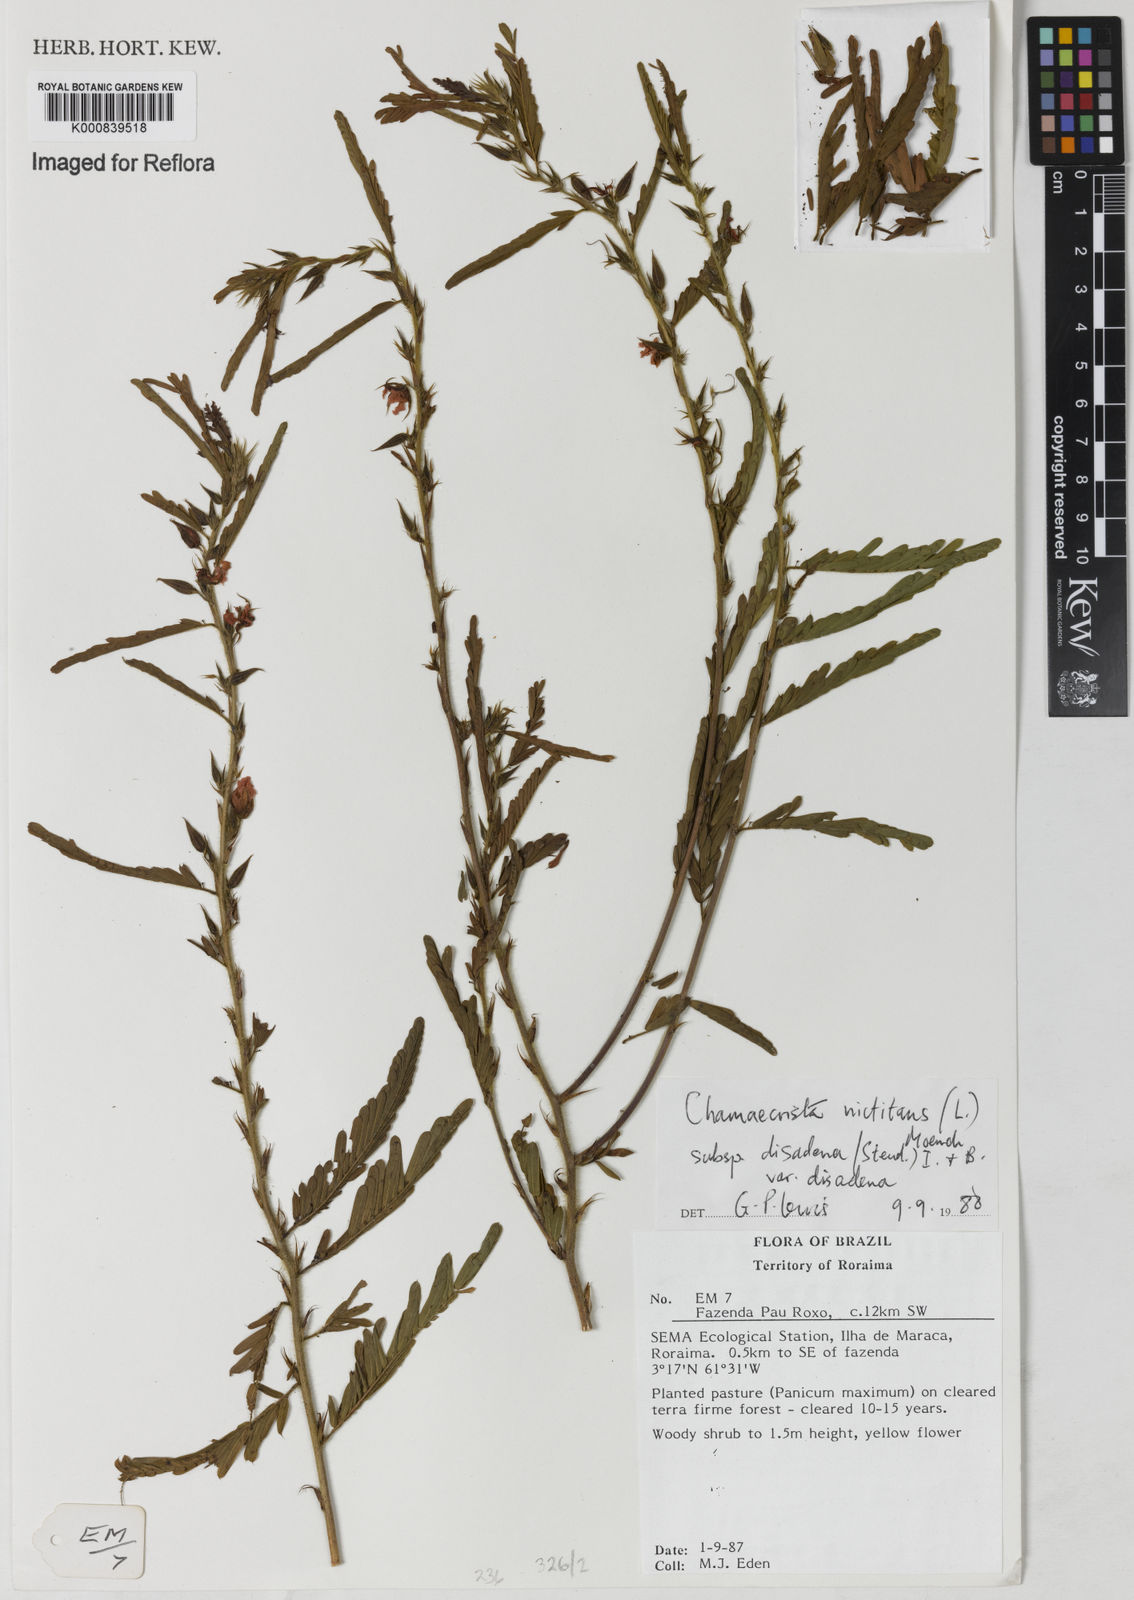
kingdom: Plantae
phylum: Tracheophyta
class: Magnoliopsida
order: Fabales
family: Fabaceae
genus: Chamaecrista
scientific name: Chamaecrista nictitans
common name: Sensitive cassia
